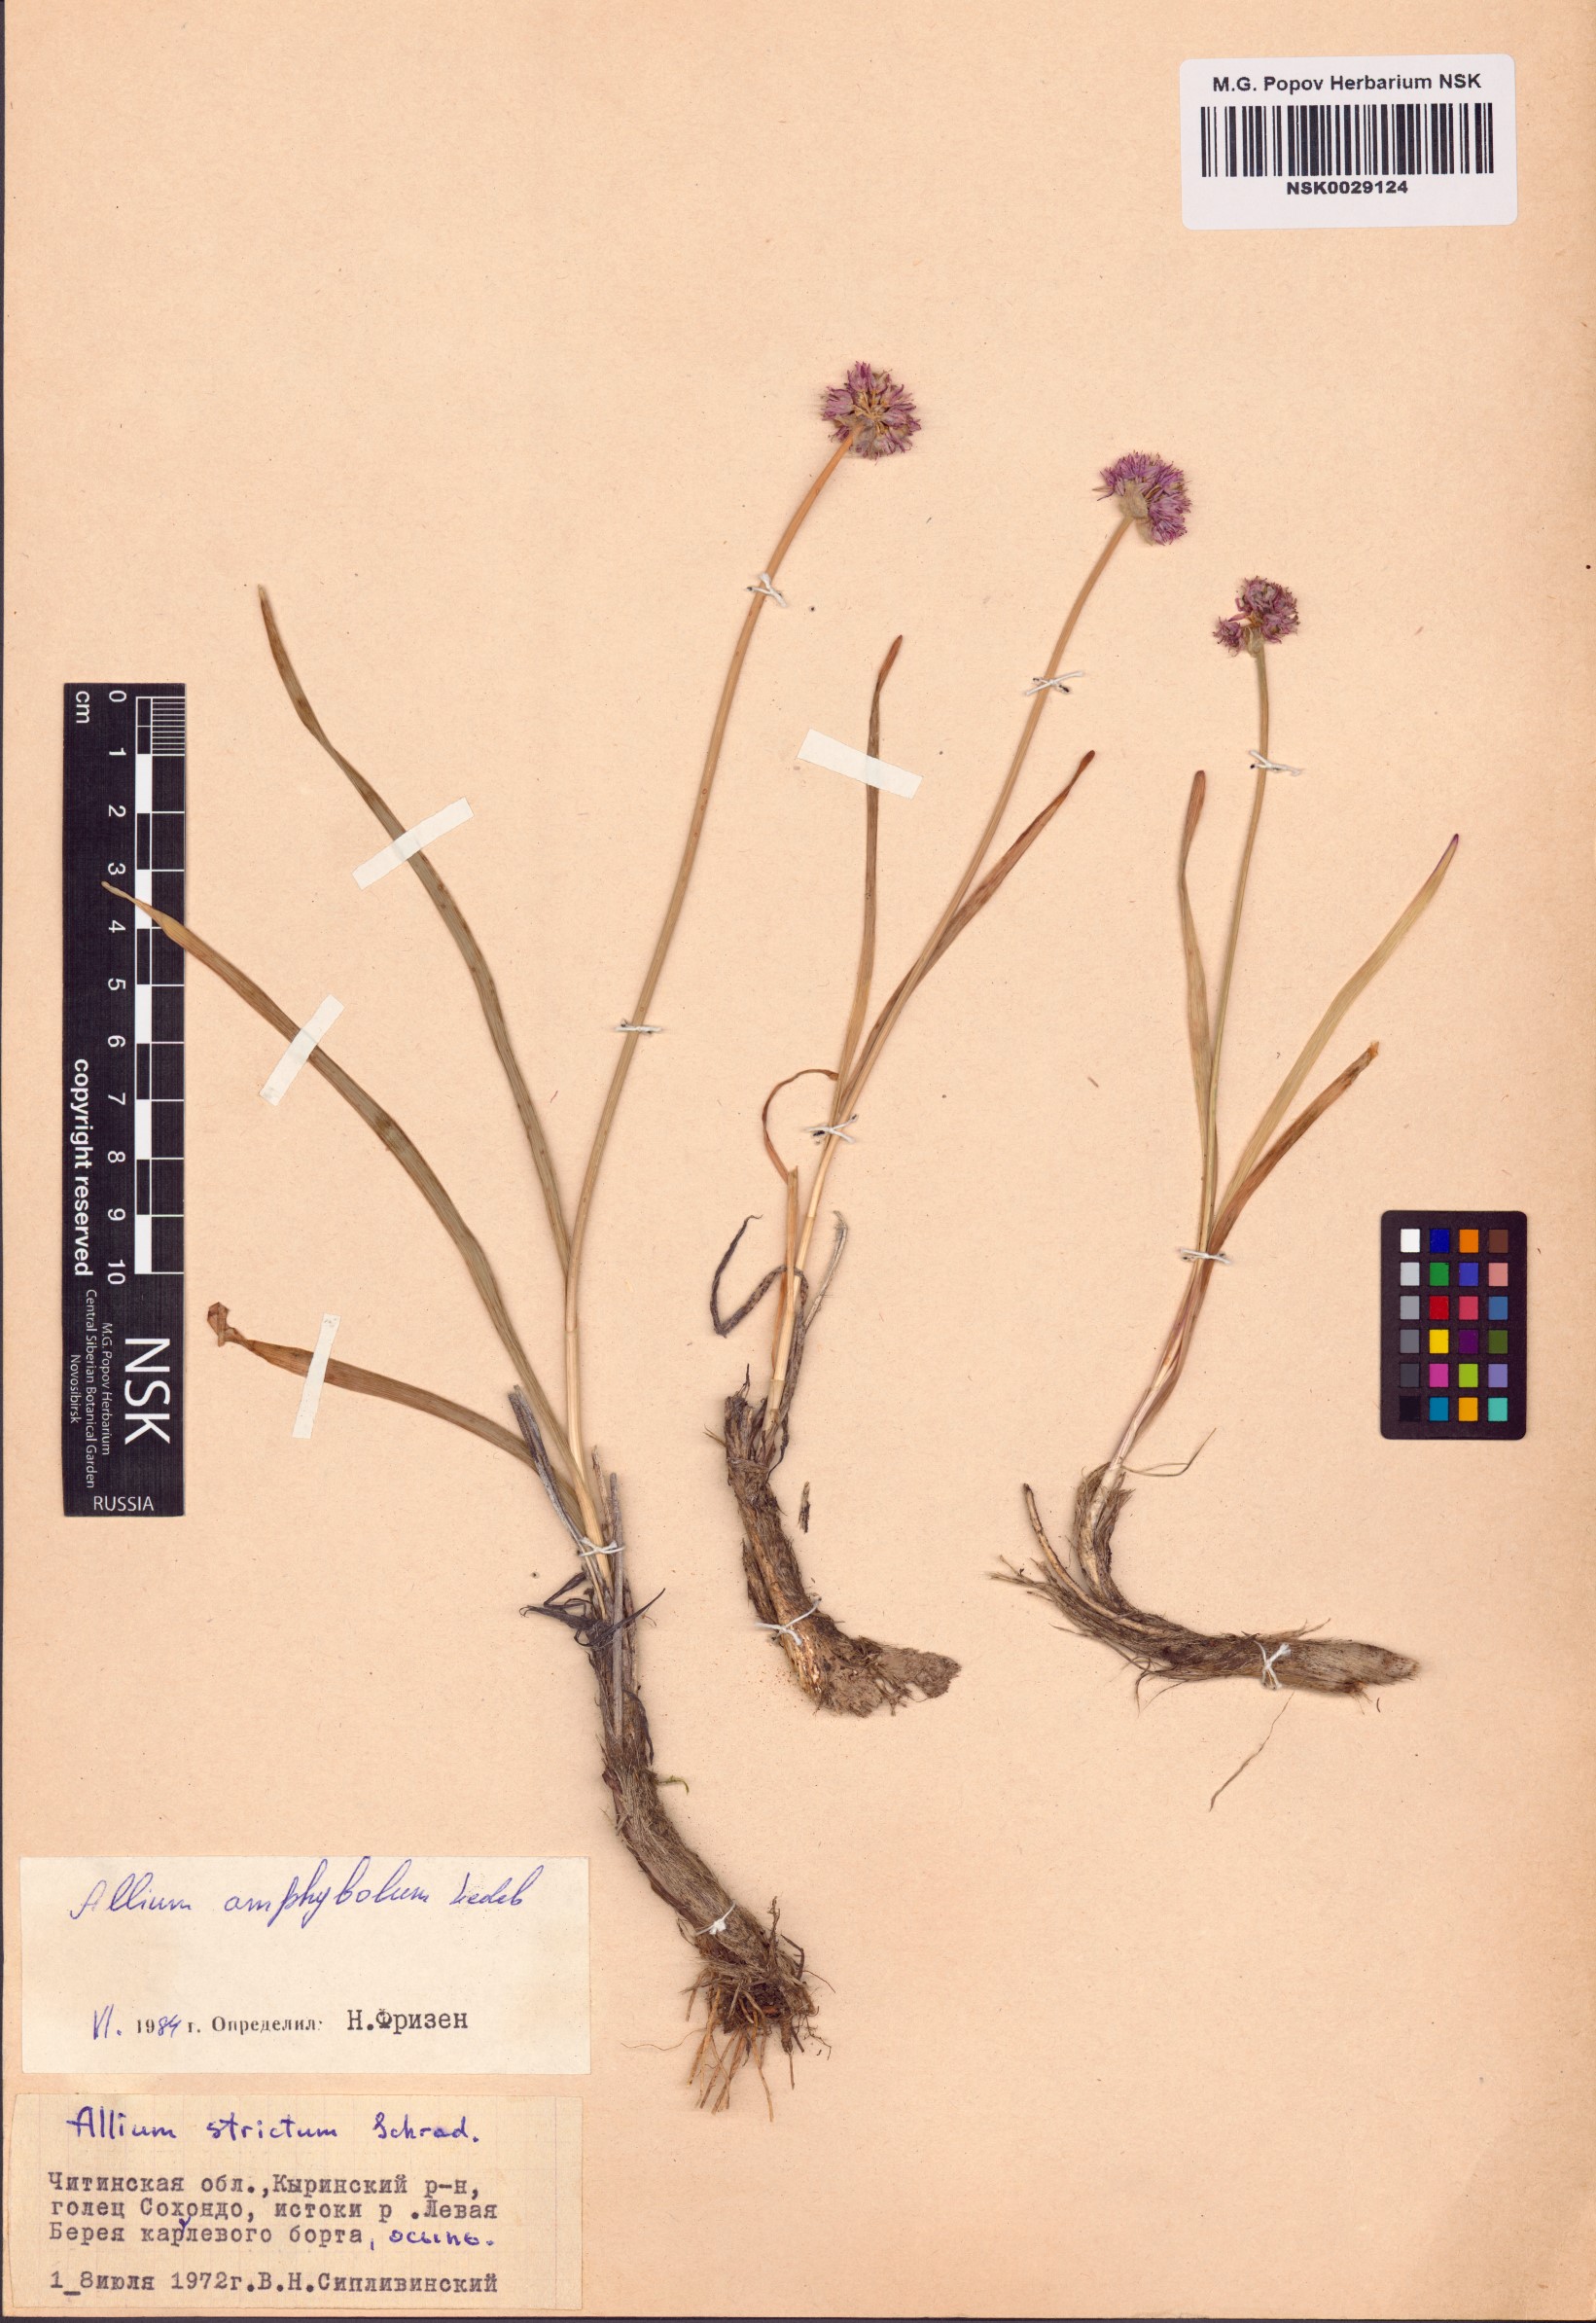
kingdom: Plantae
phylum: Tracheophyta
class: Liliopsida
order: Asparagales
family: Amaryllidaceae
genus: Allium
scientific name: Allium amphibolum
